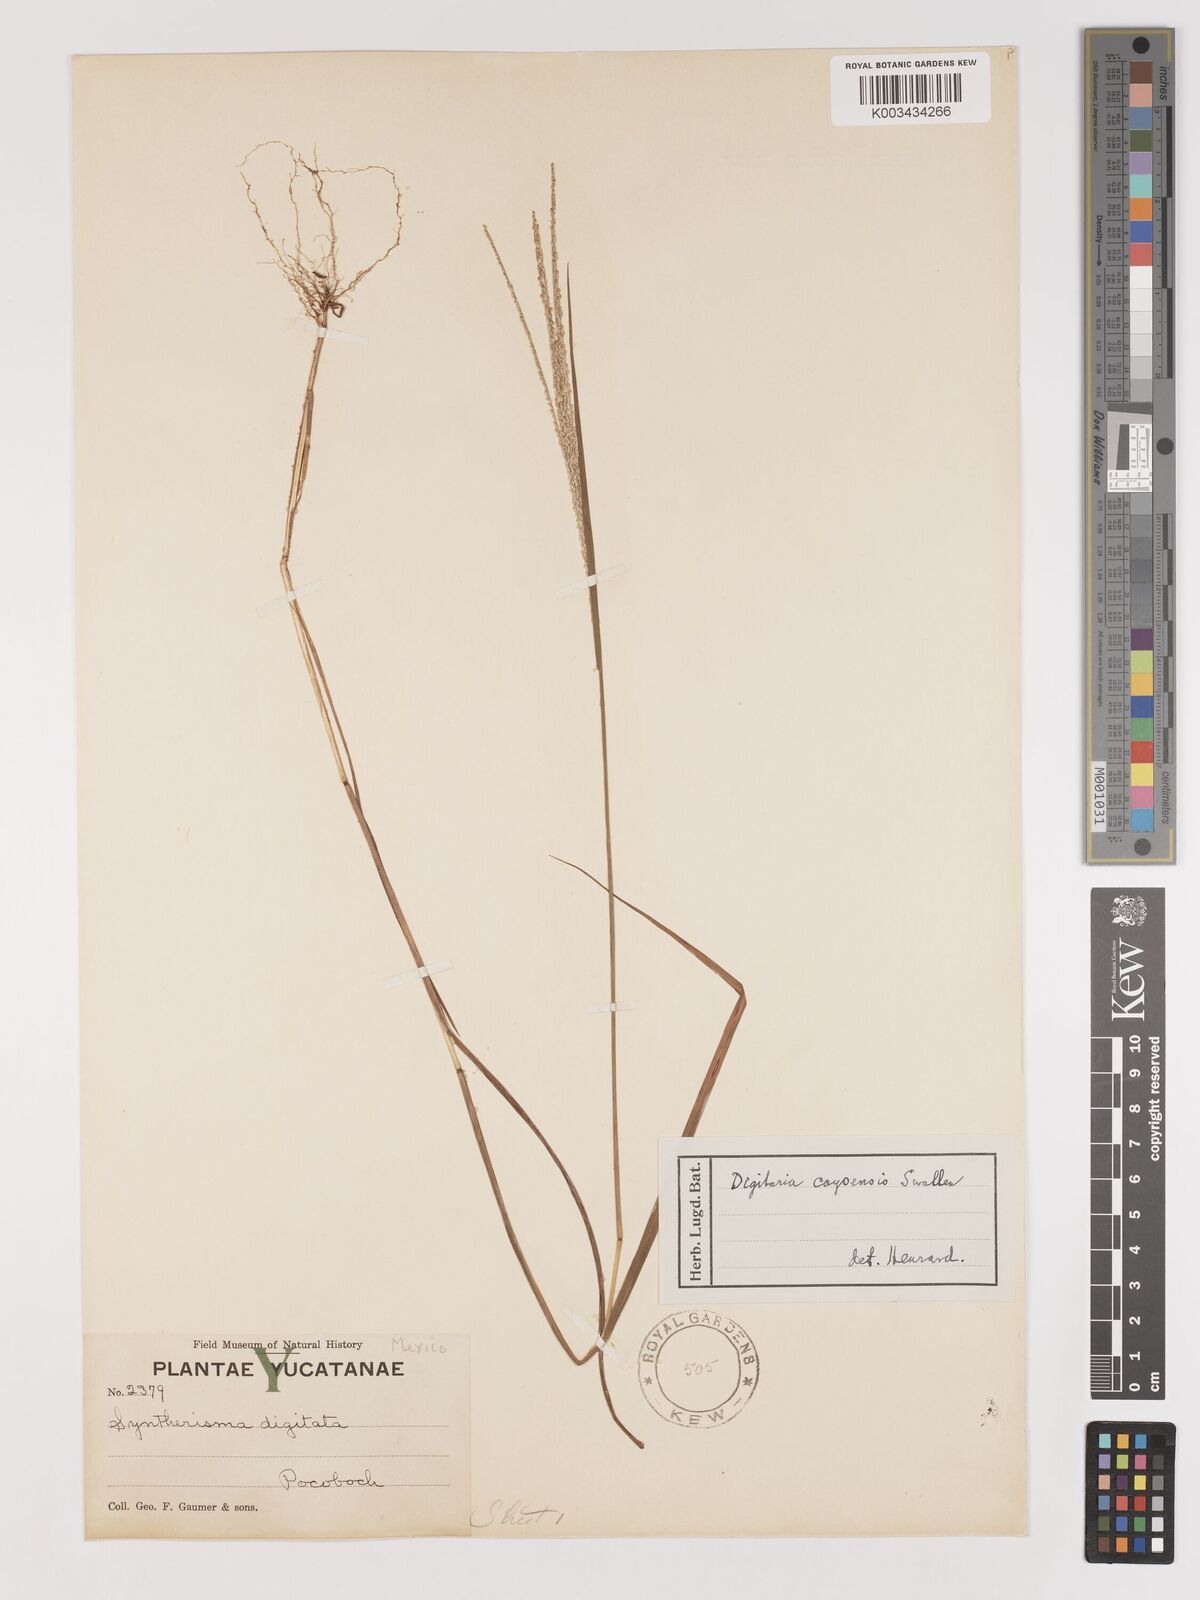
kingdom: Plantae
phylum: Tracheophyta
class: Liliopsida
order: Poales
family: Poaceae
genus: Digitaria
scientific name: Digitaria cayoensis
